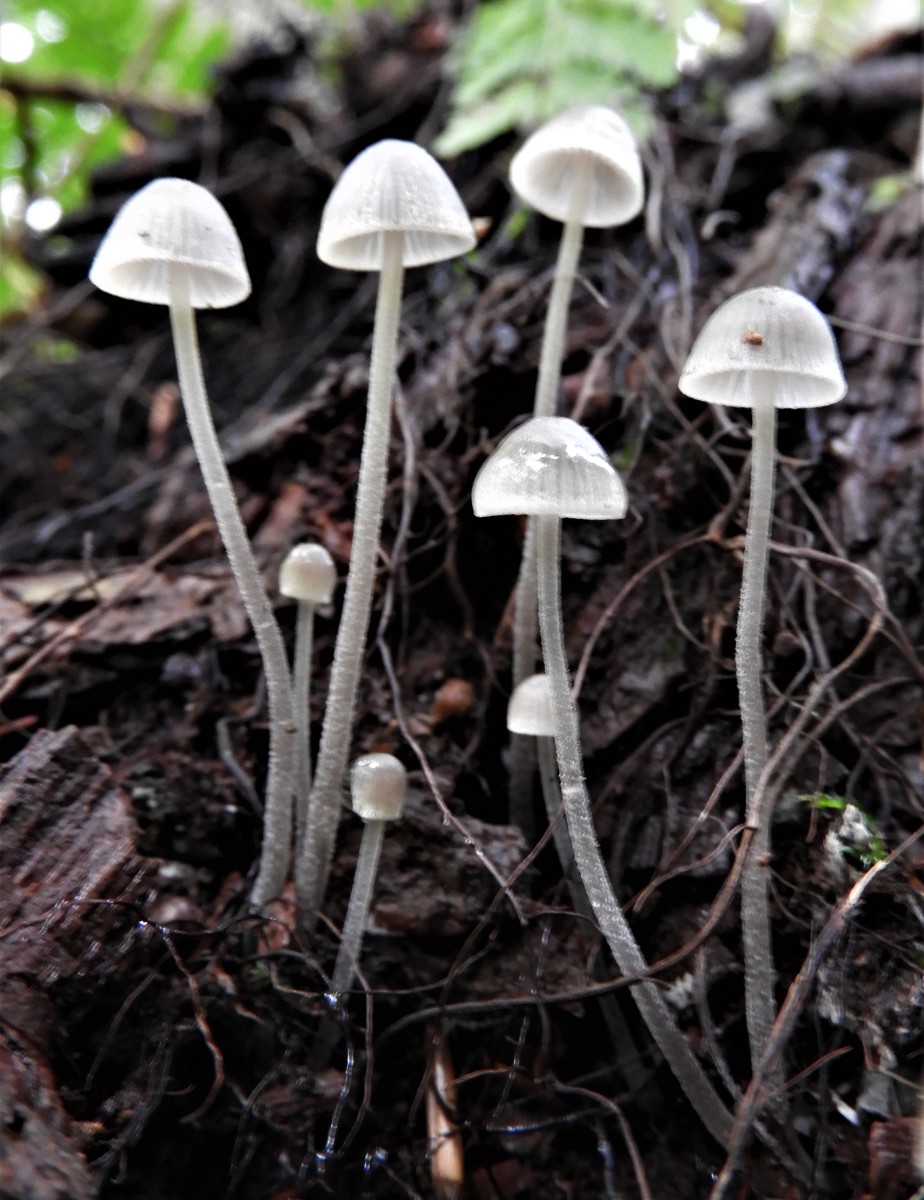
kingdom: Fungi
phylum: Basidiomycota
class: Agaricomycetes
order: Agaricales
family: Mycenaceae
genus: Mycena
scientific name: Mycena amicta
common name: iris-huesvamp
